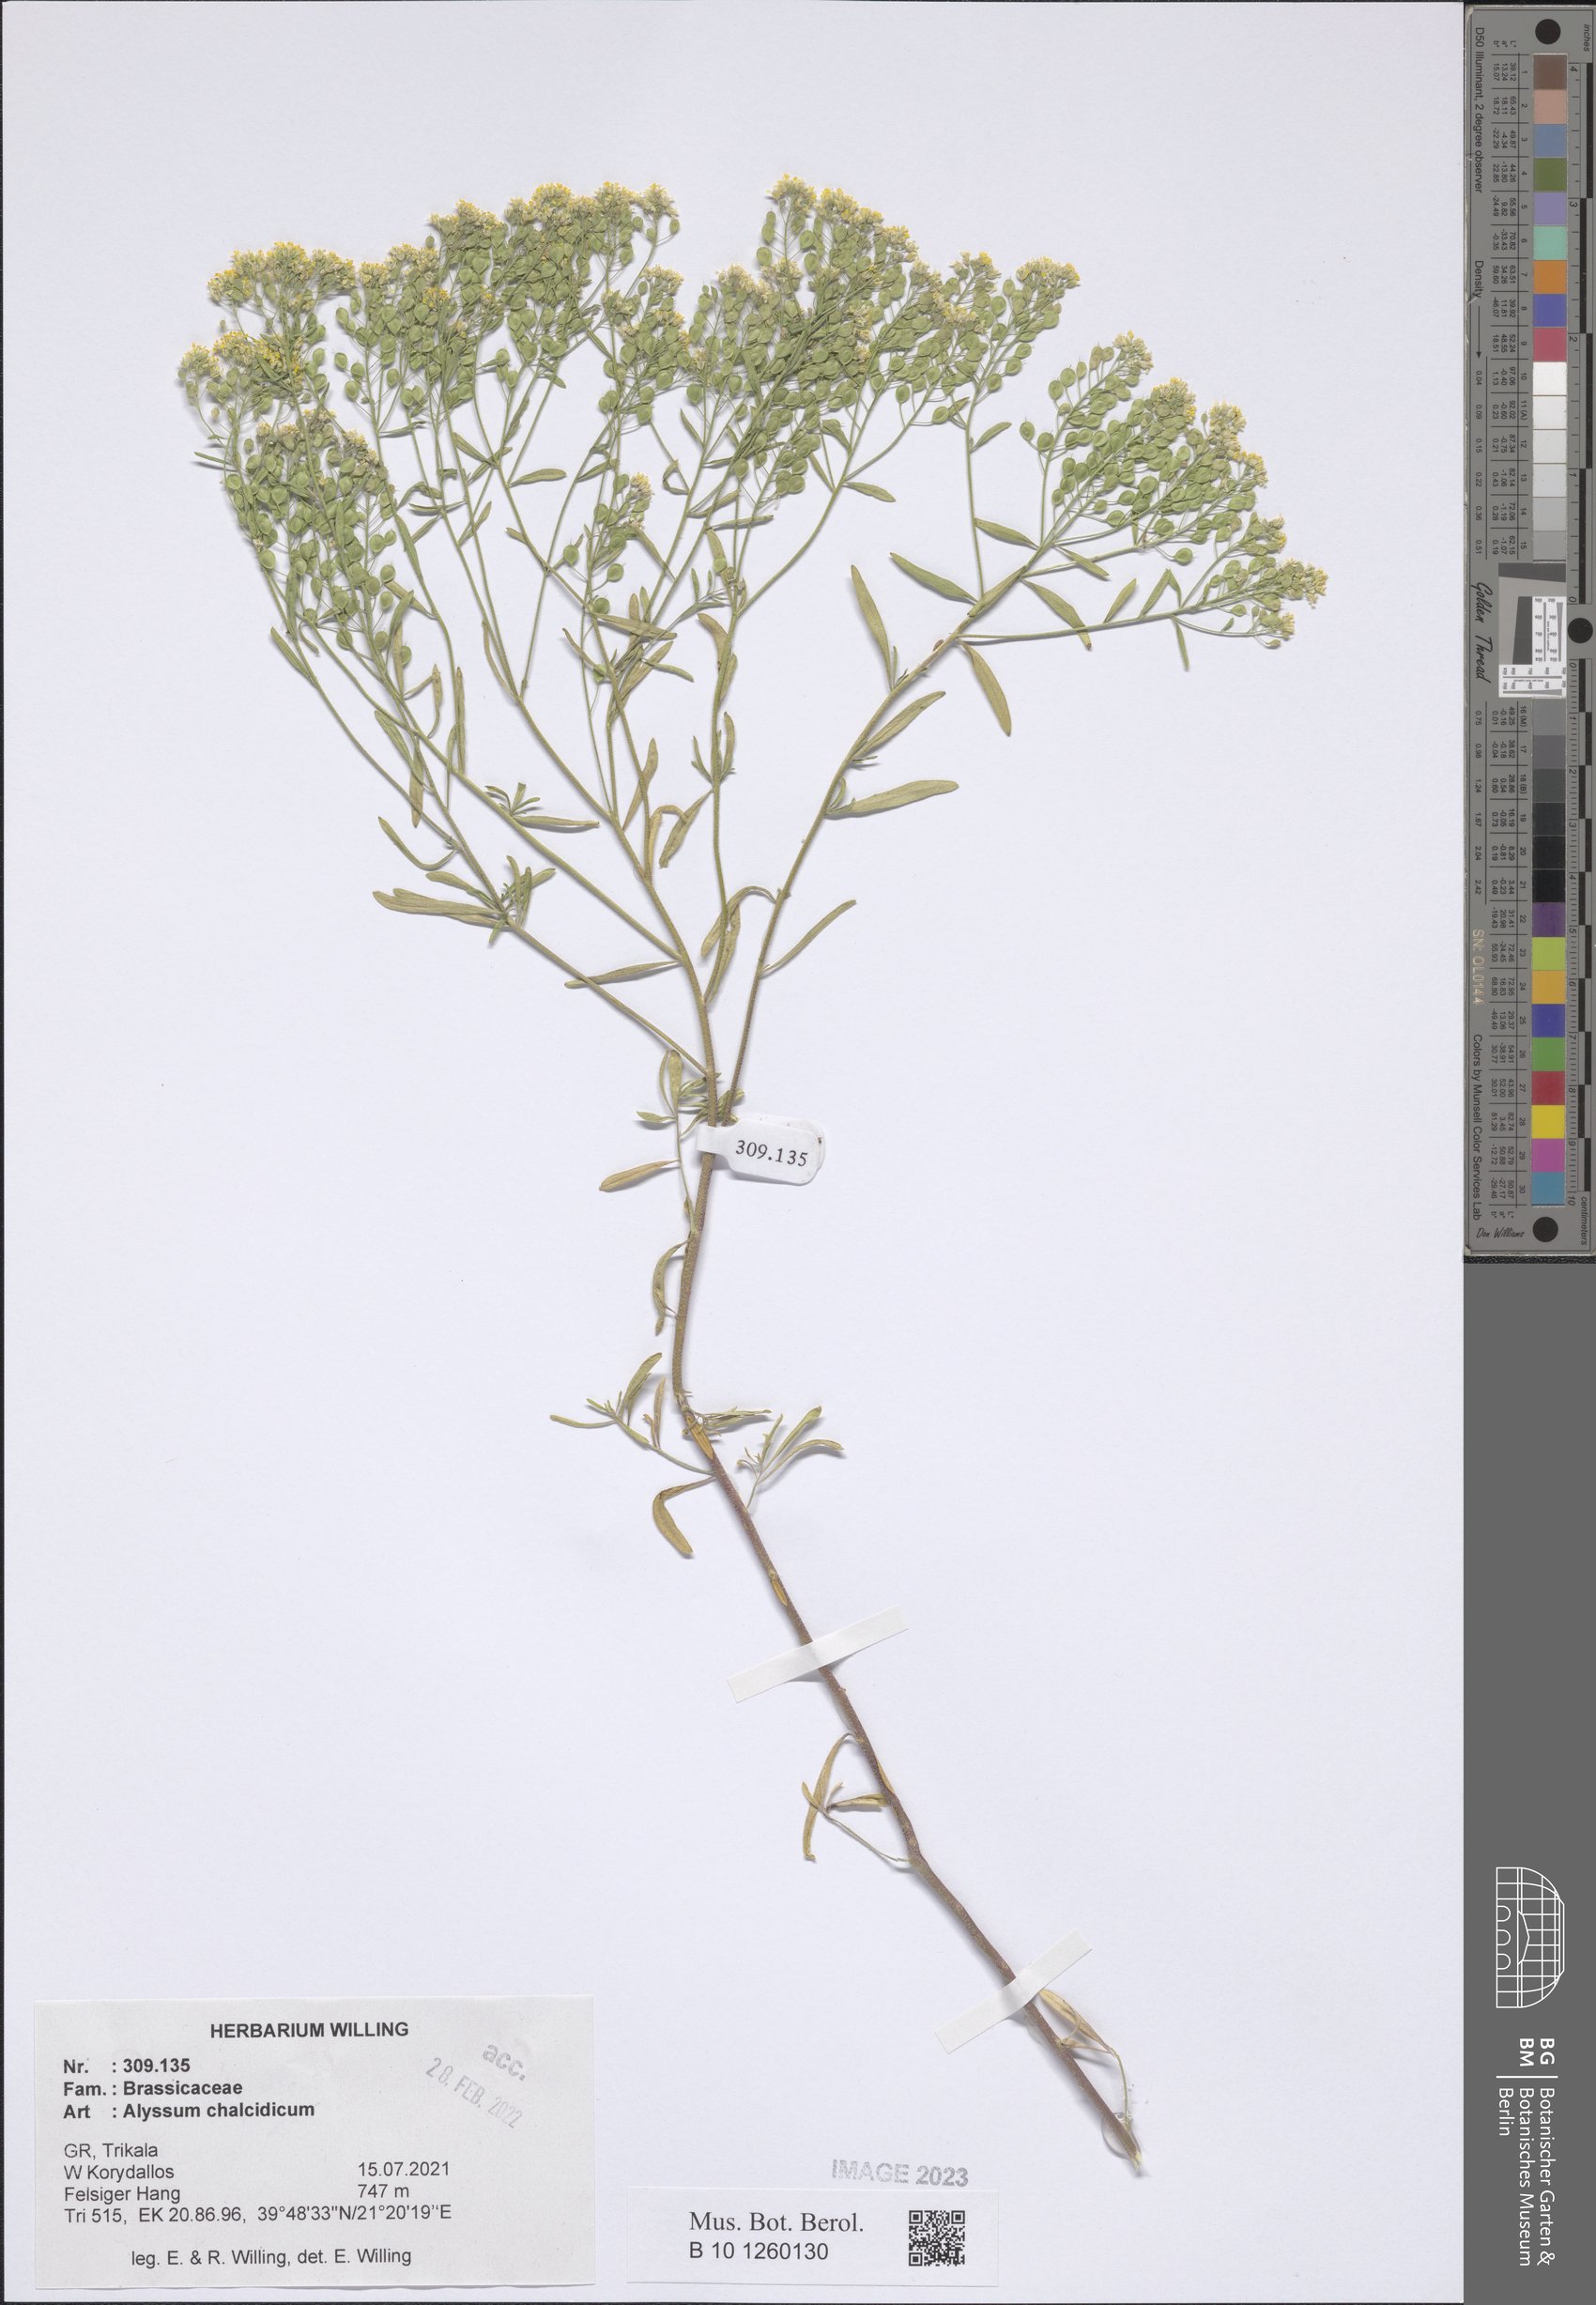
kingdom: Plantae
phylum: Tracheophyta
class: Magnoliopsida
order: Brassicales
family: Brassicaceae
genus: Odontarrhena
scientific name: Odontarrhena chalcidica
